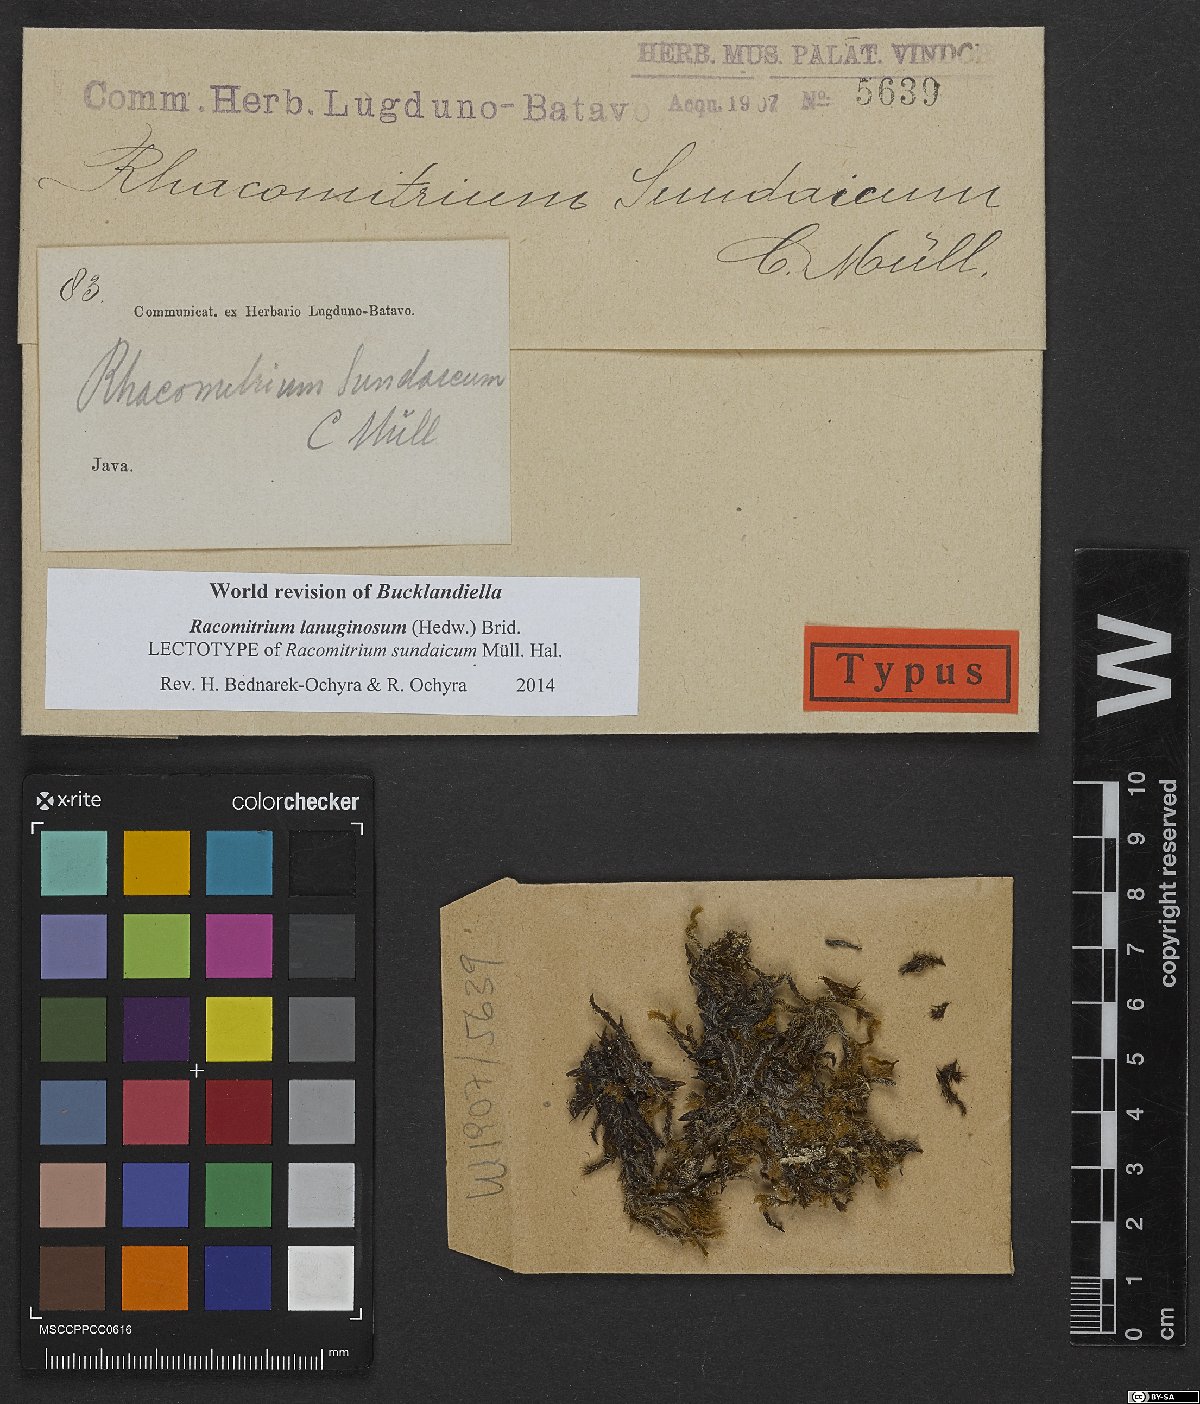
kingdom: Plantae
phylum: Bryophyta
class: Bryopsida
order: Grimmiales
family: Grimmiaceae
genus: Racomitrium
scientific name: Racomitrium lanuginosum
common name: Hoary rock moss
